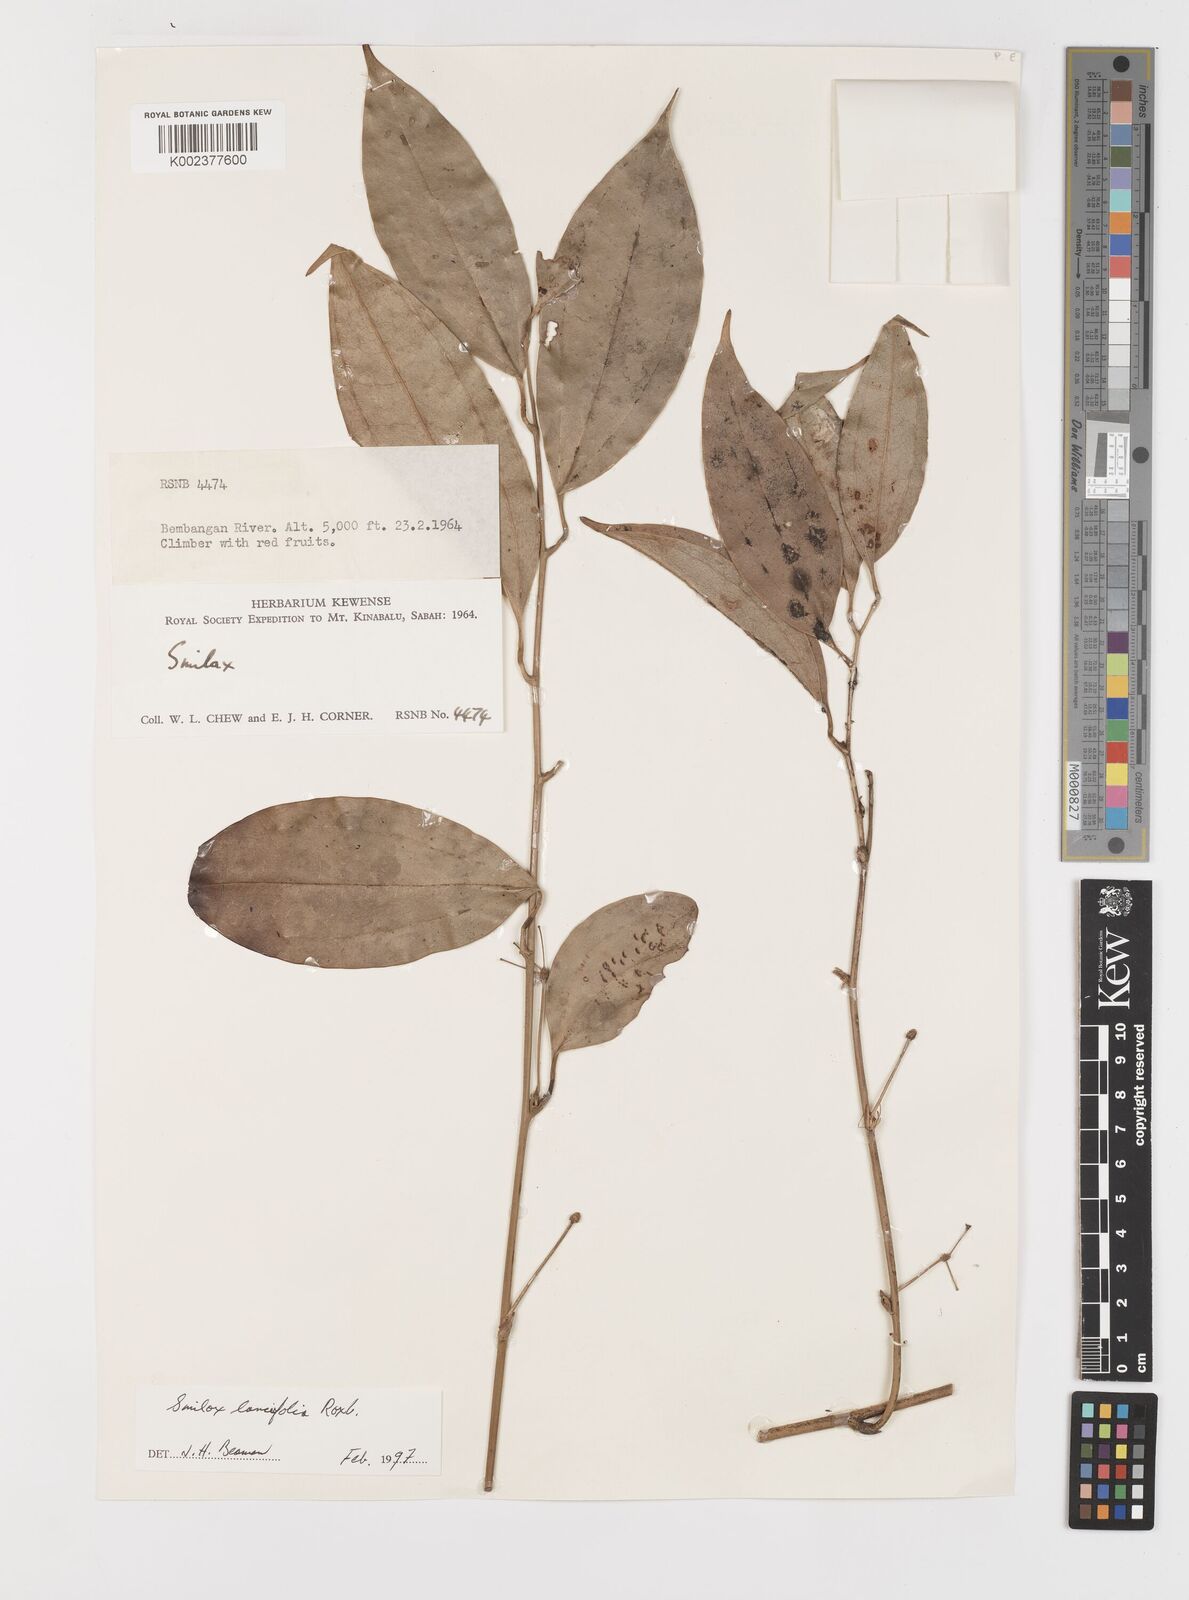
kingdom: Plantae
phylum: Tracheophyta
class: Liliopsida
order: Liliales
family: Smilacaceae
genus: Smilax
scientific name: Smilax lanceifolia
